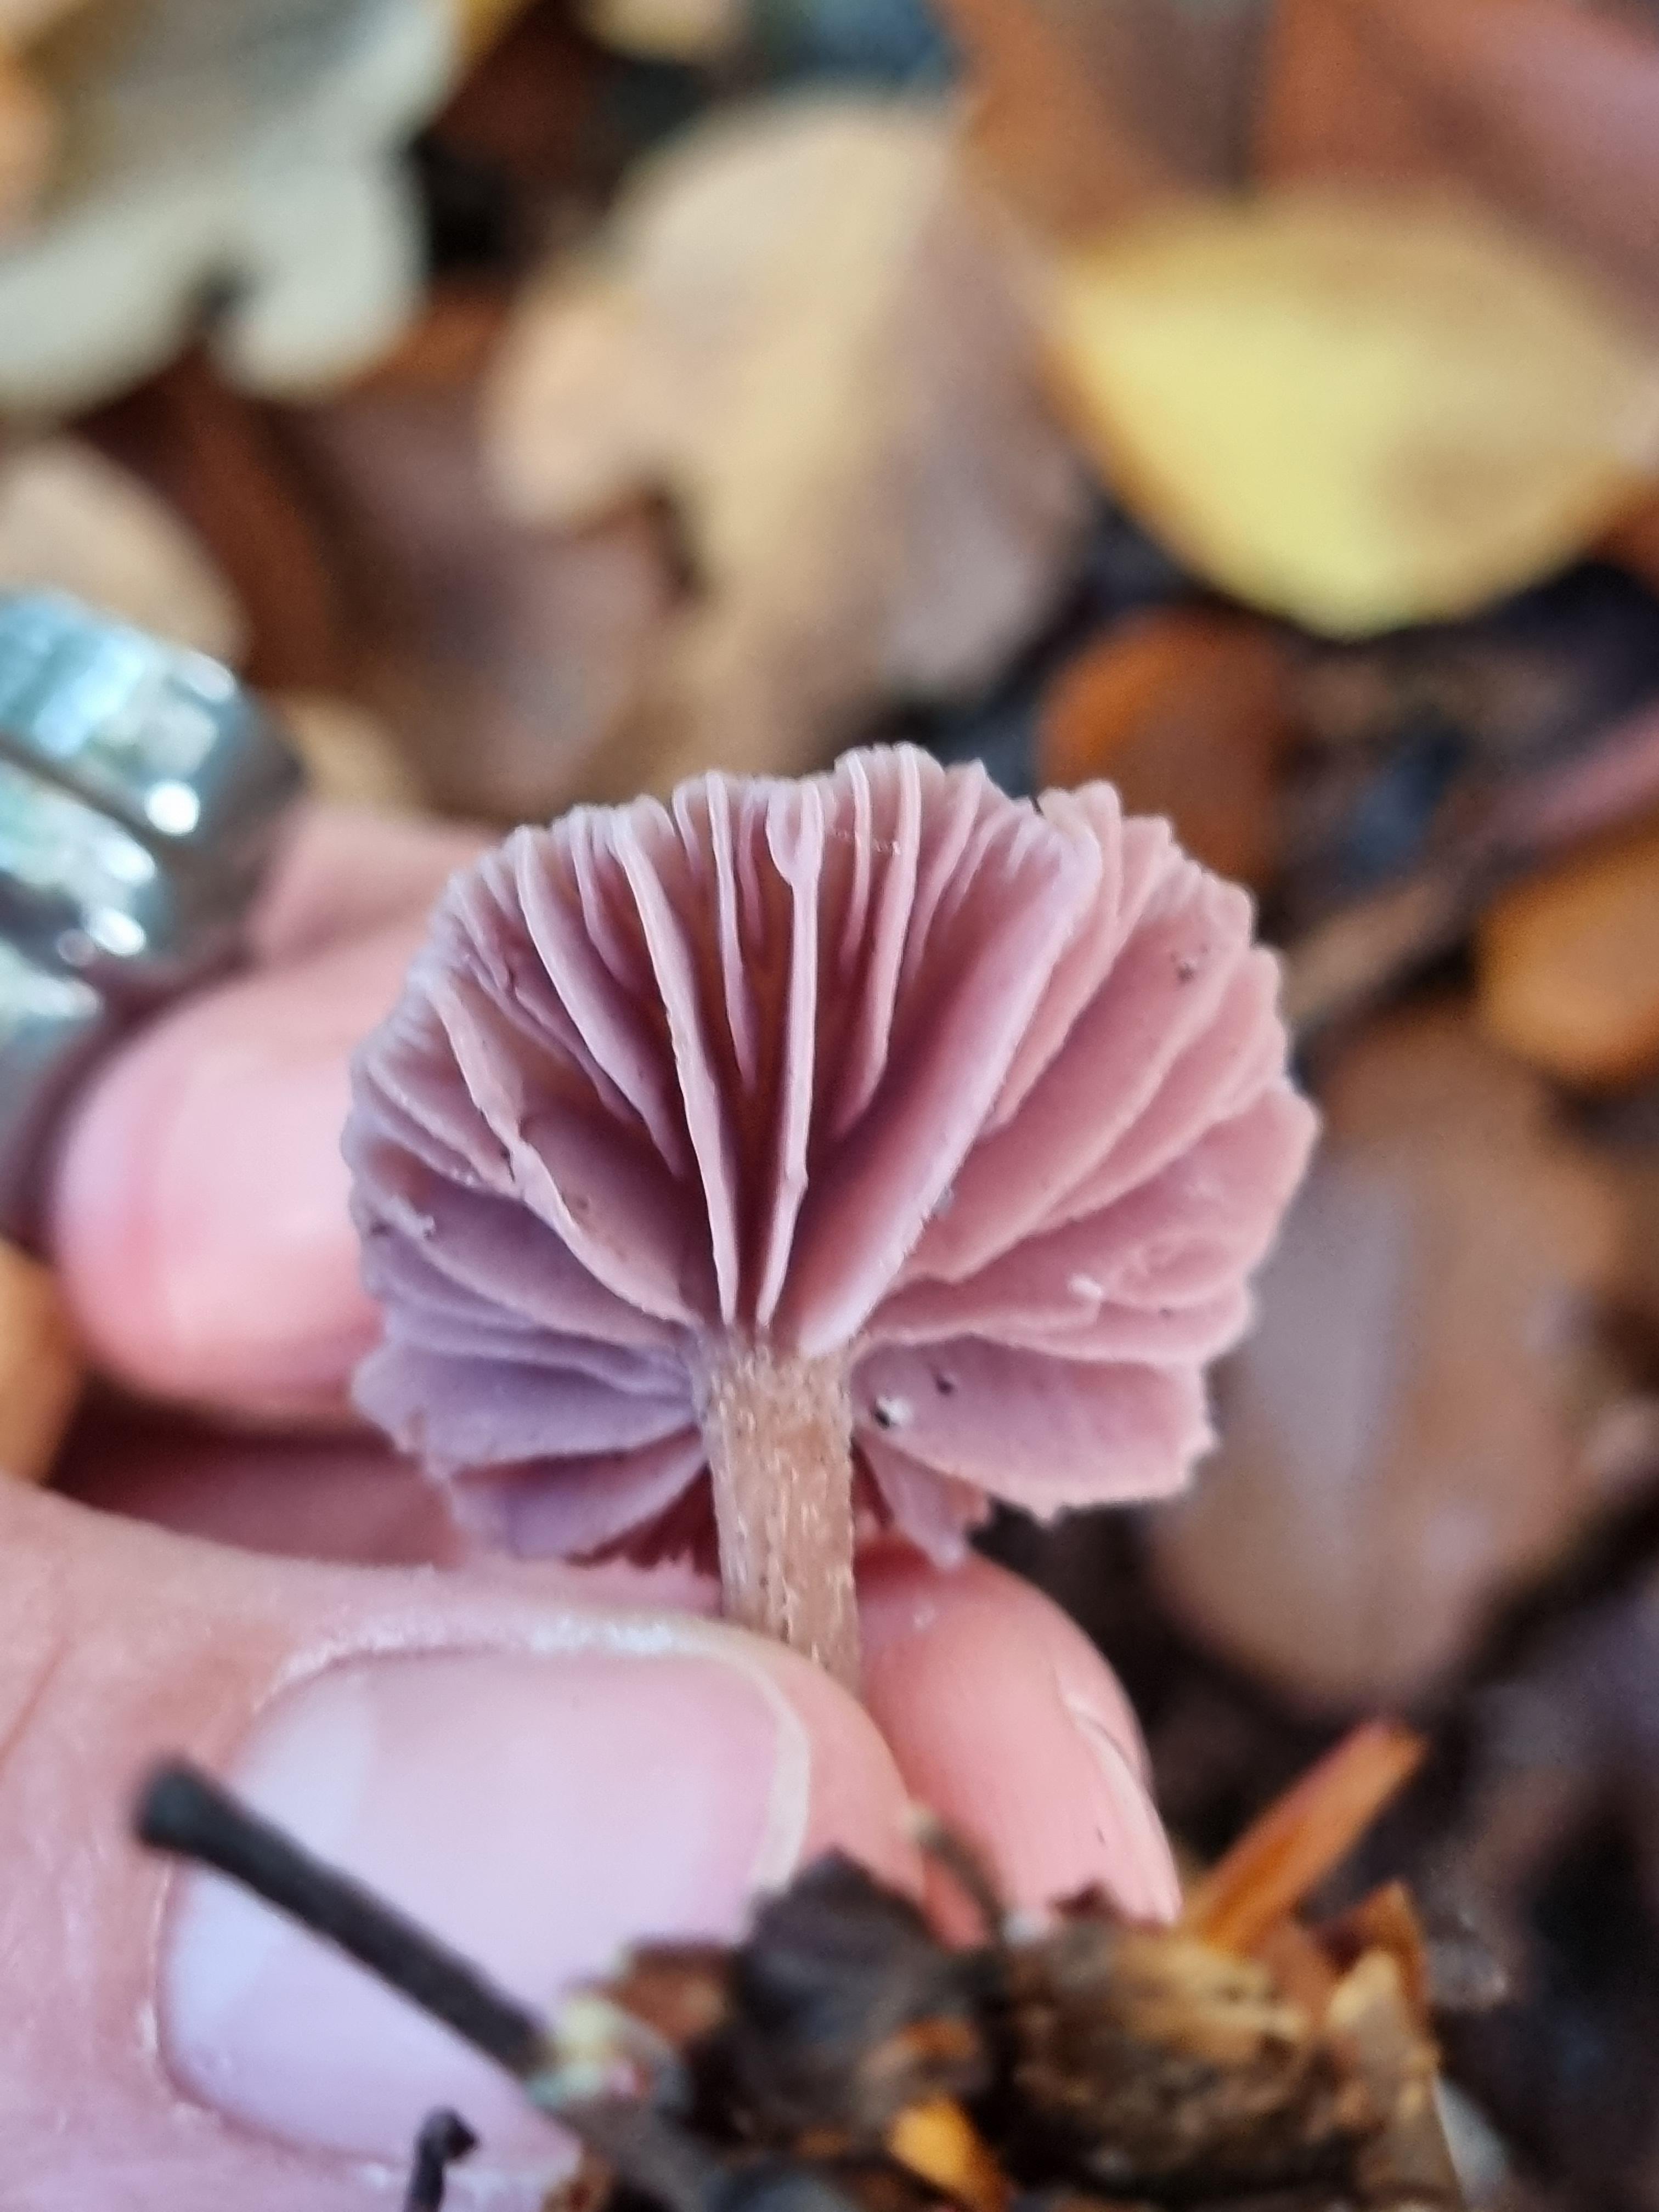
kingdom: Fungi
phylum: Basidiomycota
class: Agaricomycetes
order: Agaricales
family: Hydnangiaceae
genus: Laccaria
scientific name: Laccaria amethystina
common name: violet ametysthat
